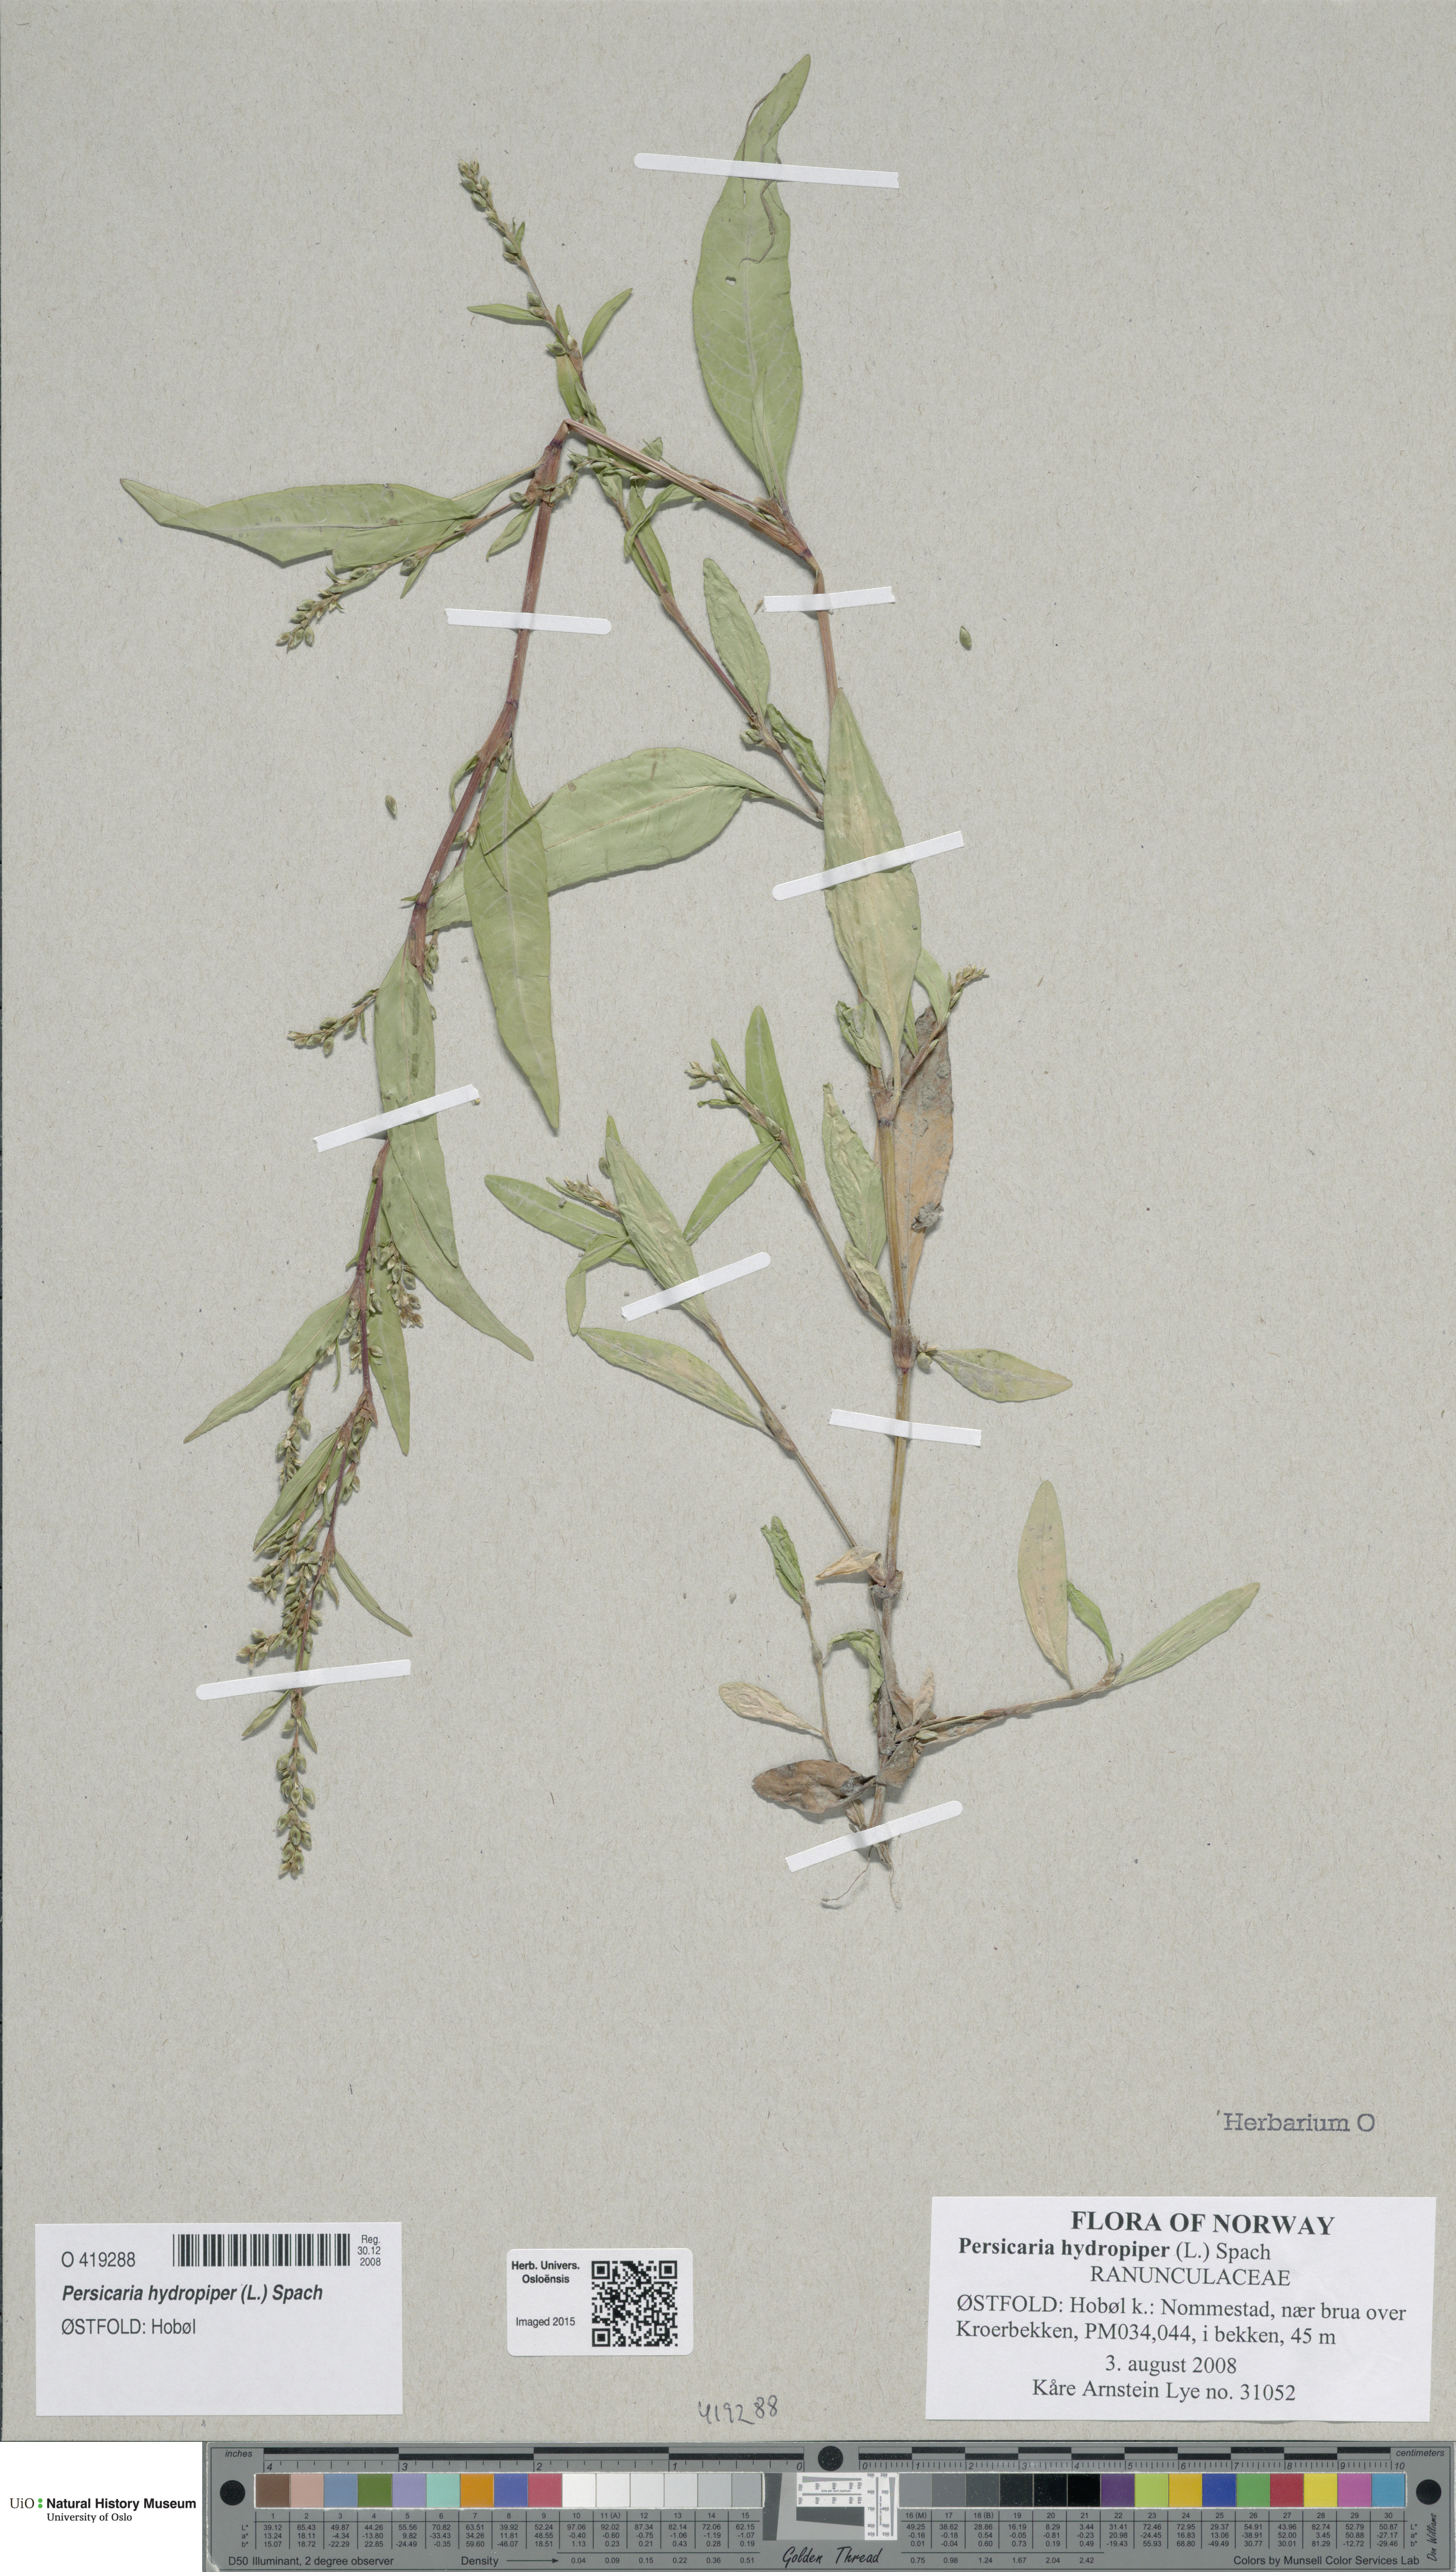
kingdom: Plantae
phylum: Tracheophyta
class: Magnoliopsida
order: Caryophyllales
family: Polygonaceae
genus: Persicaria
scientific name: Persicaria hydropiper
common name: Water-pepper
